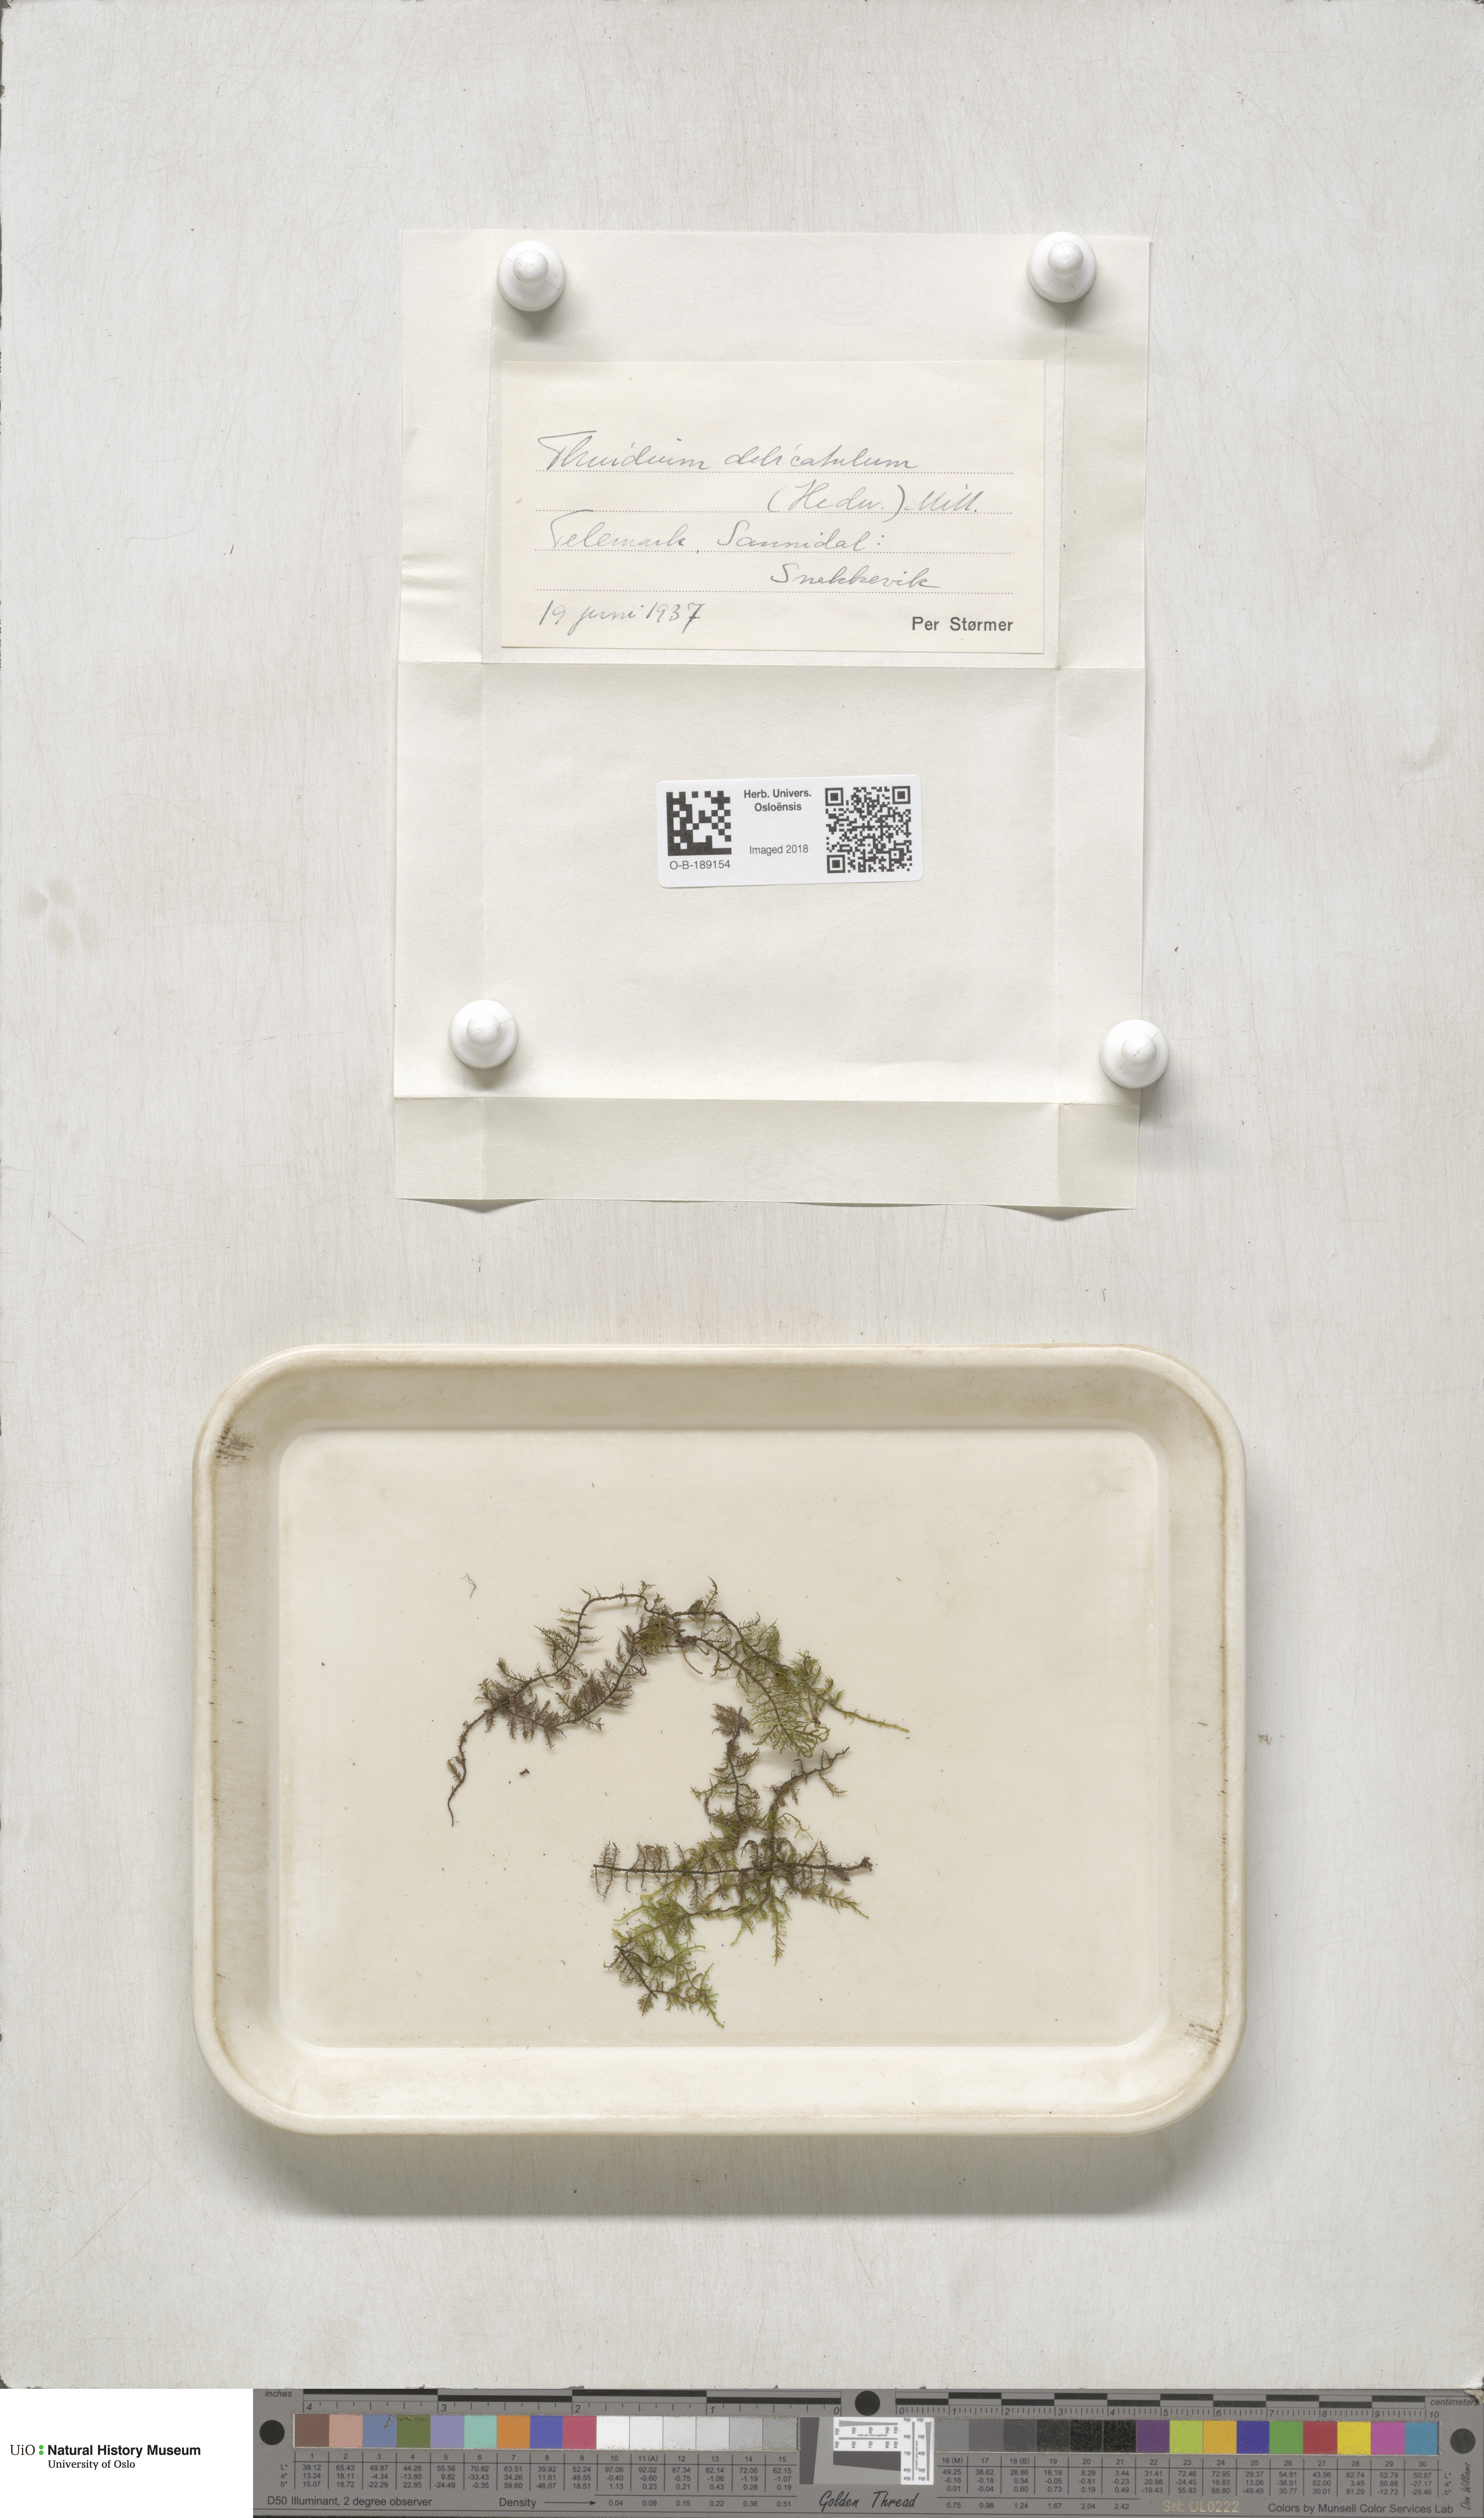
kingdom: Plantae
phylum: Bryophyta
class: Bryopsida
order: Hypnales
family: Thuidiaceae
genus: Thuidium
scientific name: Thuidium delicatulum
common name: Delicate fern moss
